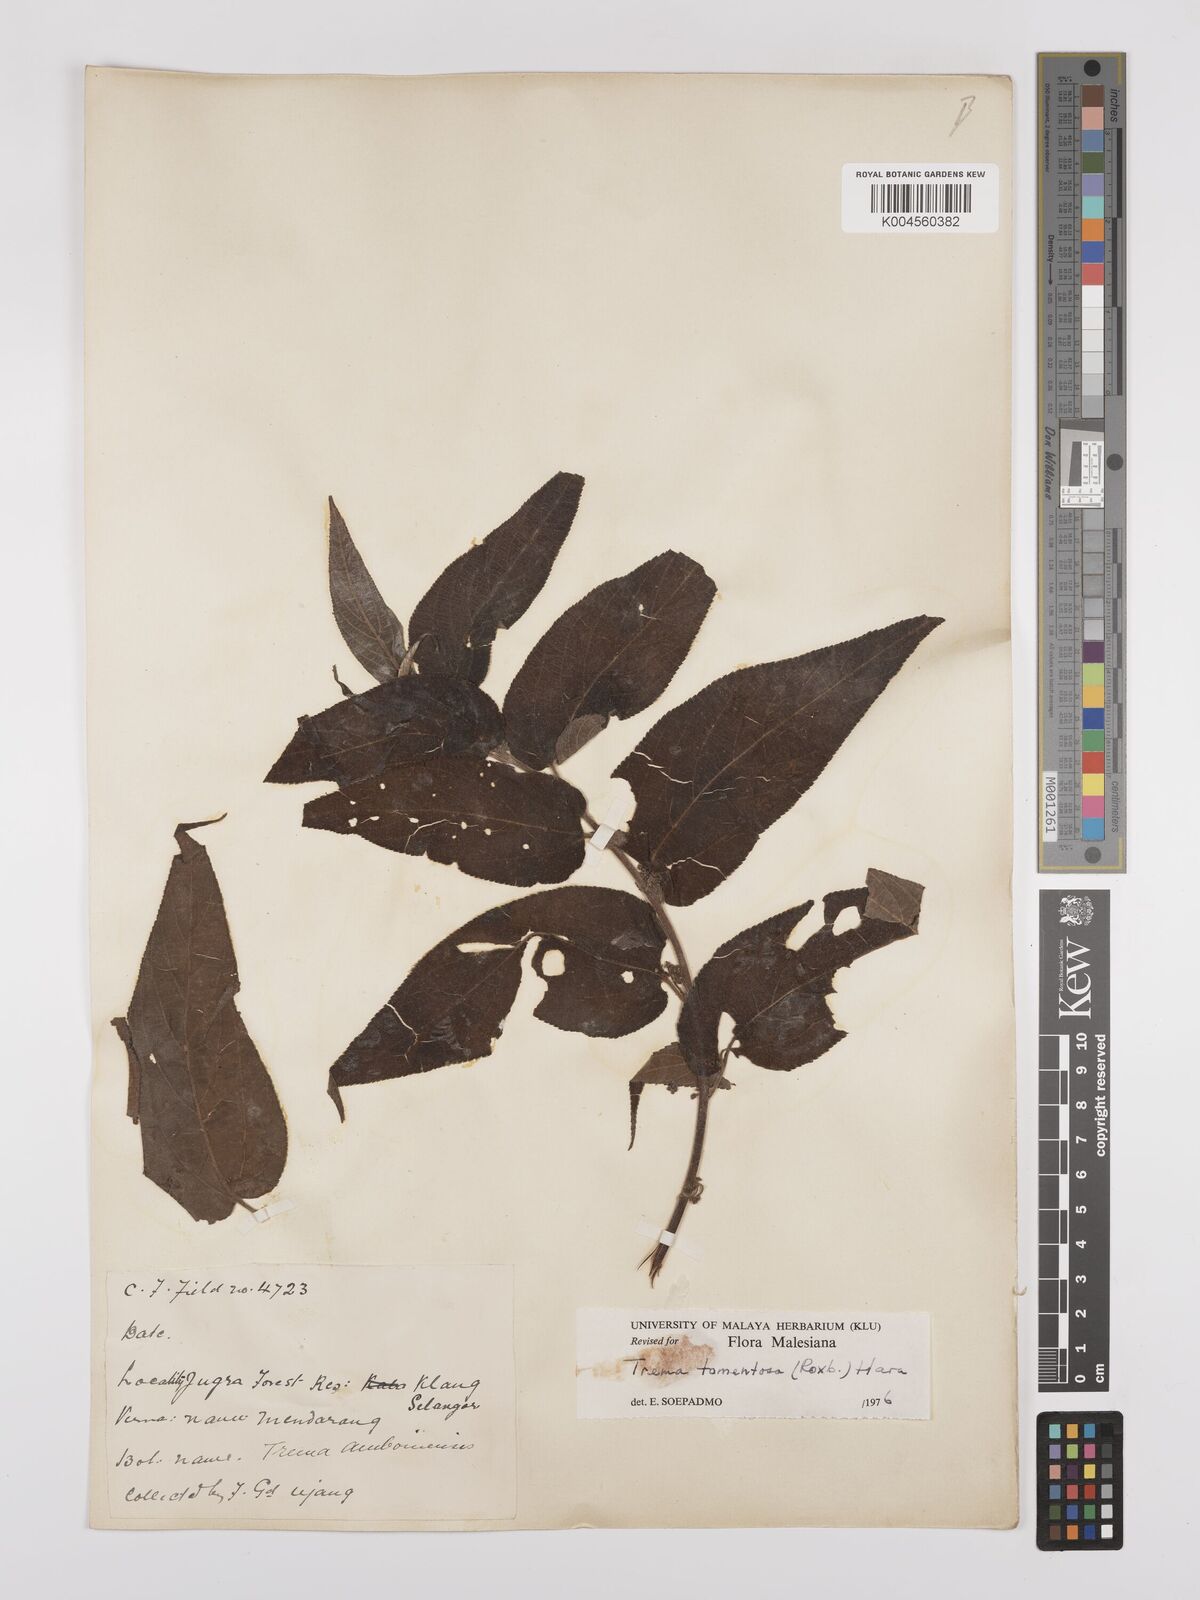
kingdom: Plantae
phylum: Tracheophyta
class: Magnoliopsida
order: Rosales
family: Cannabaceae
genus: Trema
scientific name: Trema tomentosum
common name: Peach-leaf-poisonbush
